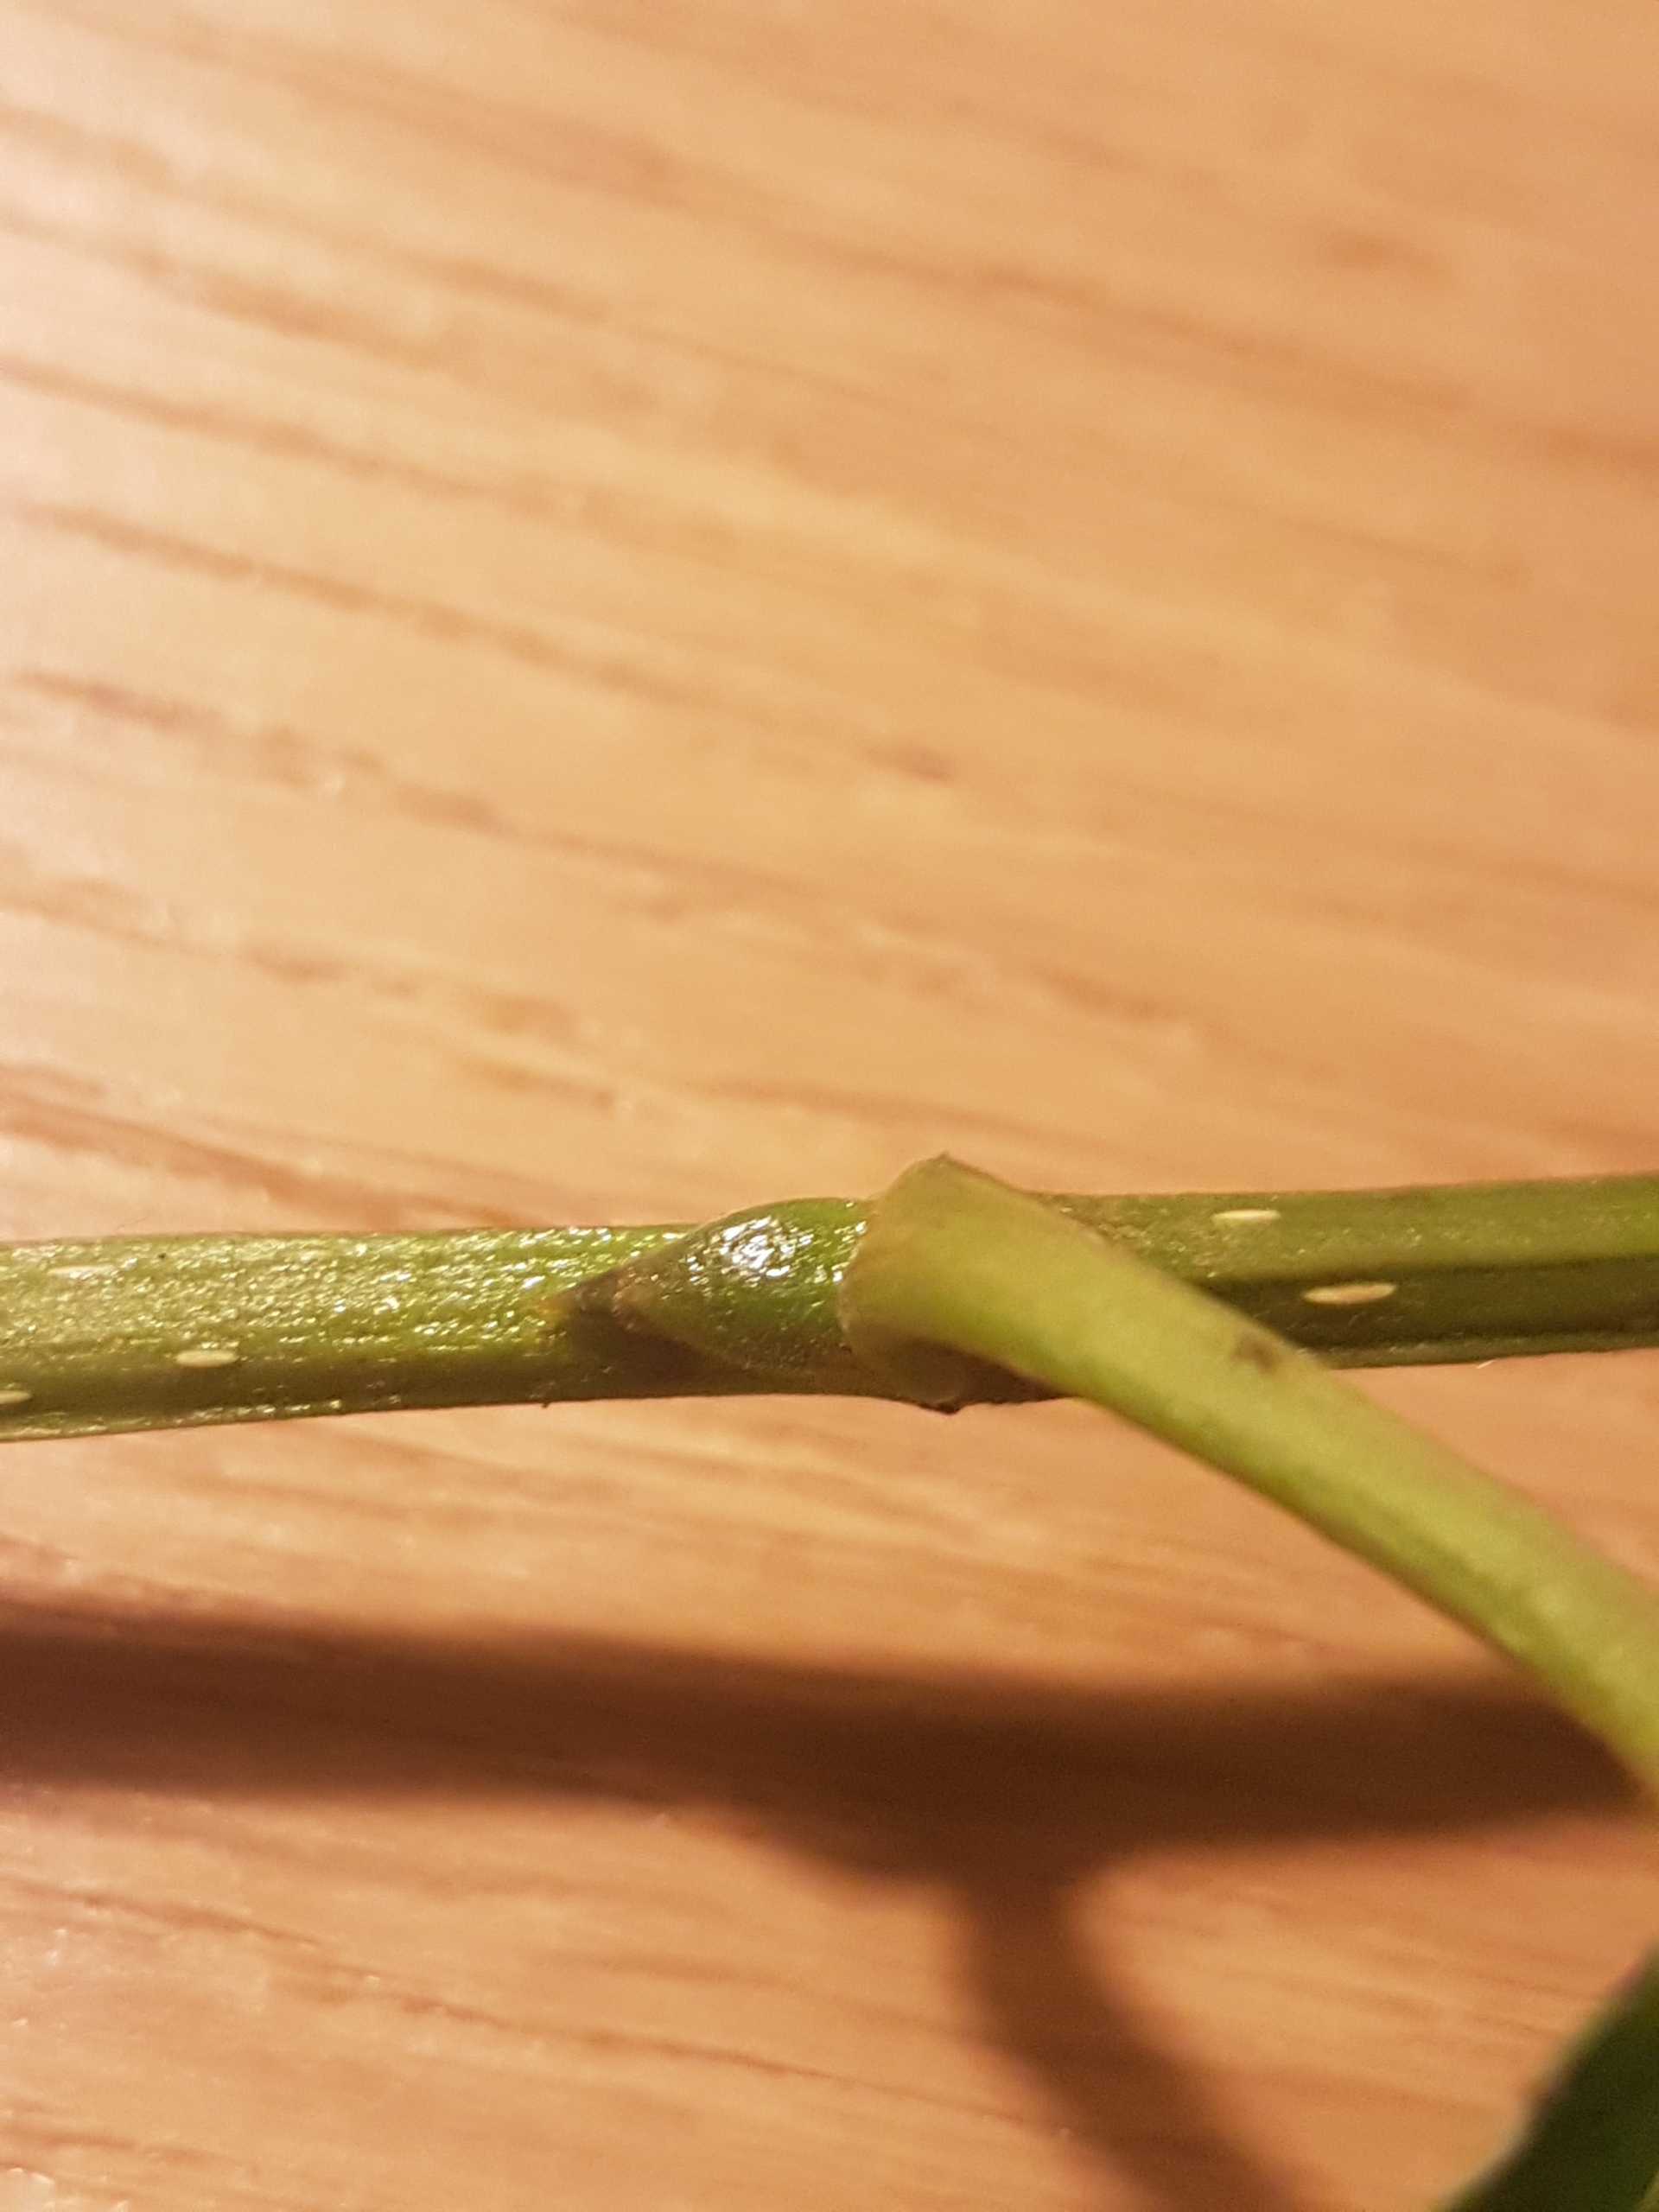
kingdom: Plantae
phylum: Tracheophyta
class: Magnoliopsida
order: Malpighiales
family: Salicaceae
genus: Populus
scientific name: Populus trichocarpa
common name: Vestamerikansk poppel
